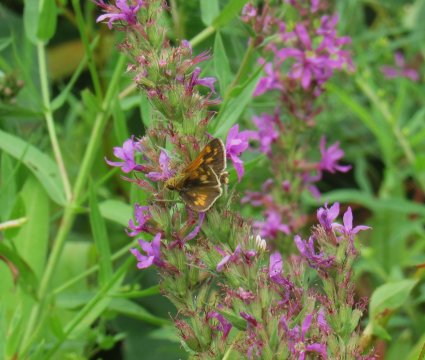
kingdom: Animalia
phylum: Arthropoda
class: Insecta
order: Lepidoptera
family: Hesperiidae
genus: Polites
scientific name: Polites coras
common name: Peck's Skipper
